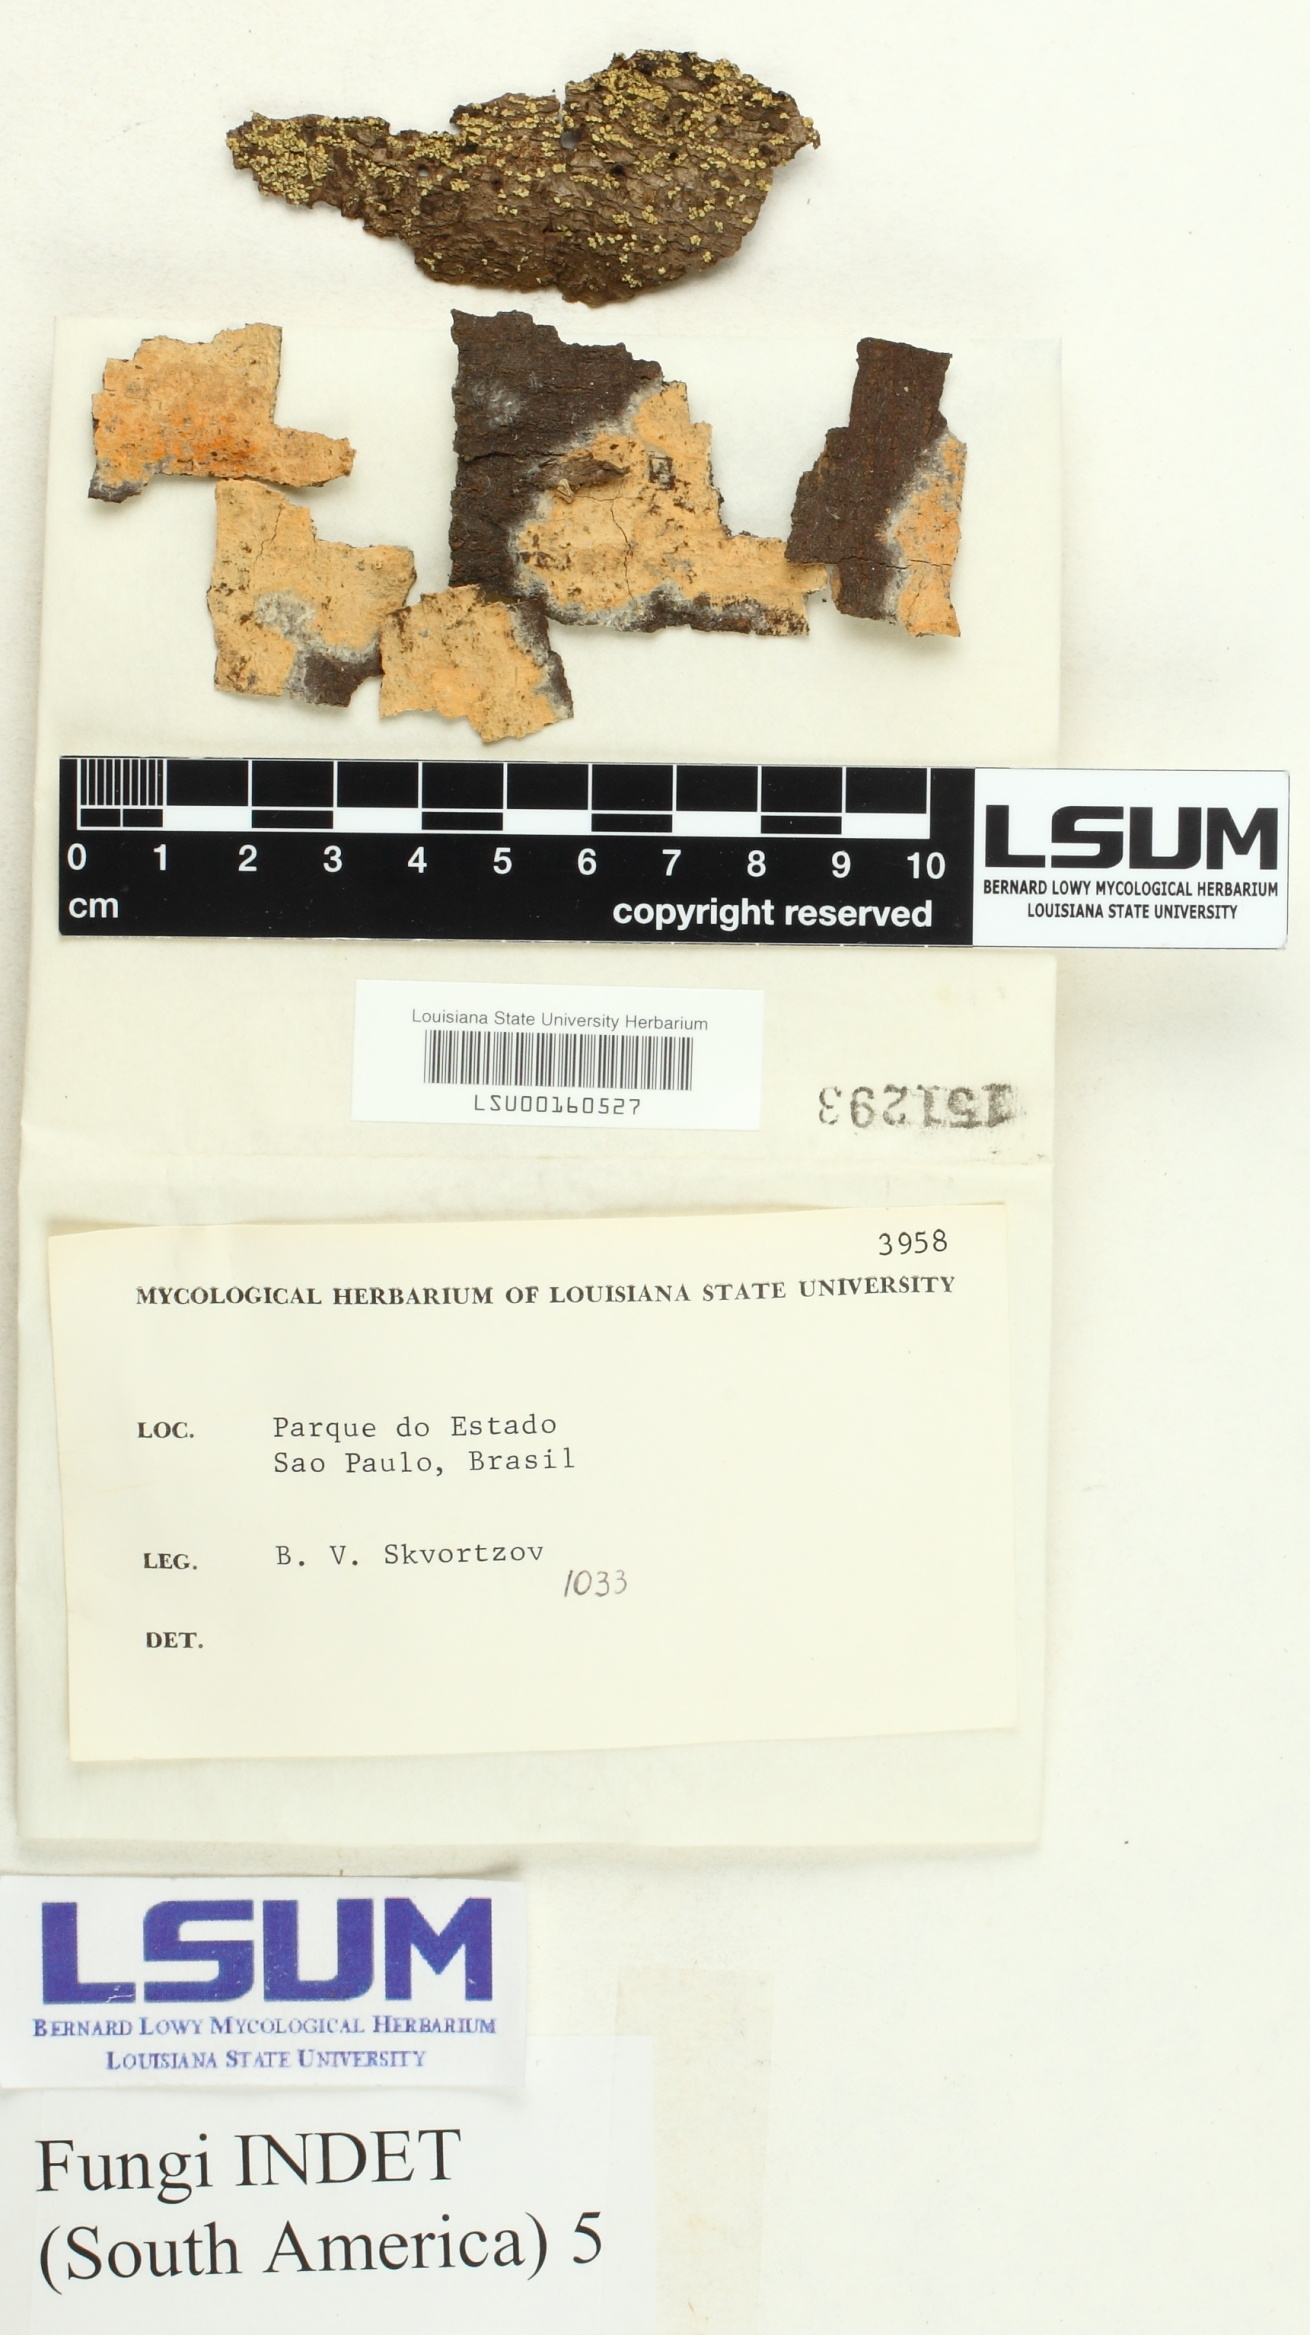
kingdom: Fungi
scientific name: Fungi
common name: Fungi
